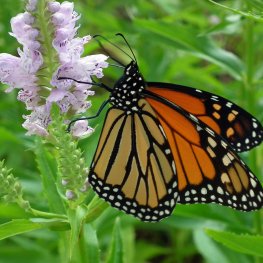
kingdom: Animalia
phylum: Arthropoda
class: Insecta
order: Lepidoptera
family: Nymphalidae
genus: Danaus
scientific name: Danaus plexippus
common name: Monarch
